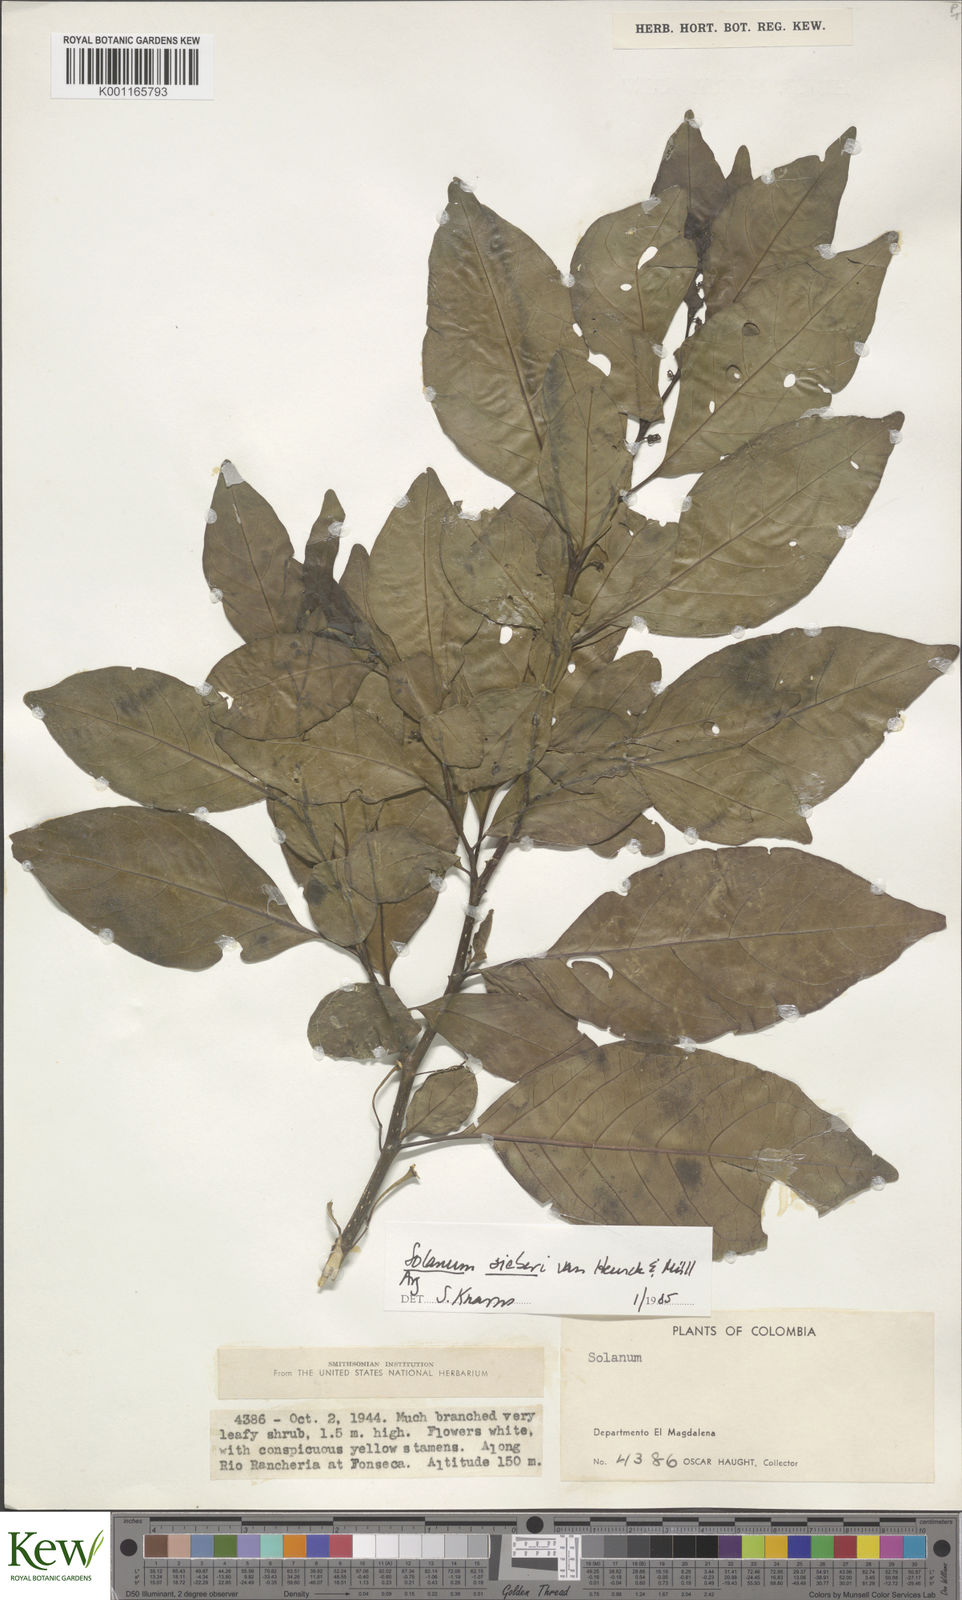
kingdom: Plantae
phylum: Tracheophyta
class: Magnoliopsida
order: Solanales
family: Solanaceae
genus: Solanum
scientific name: Solanum sieberi
